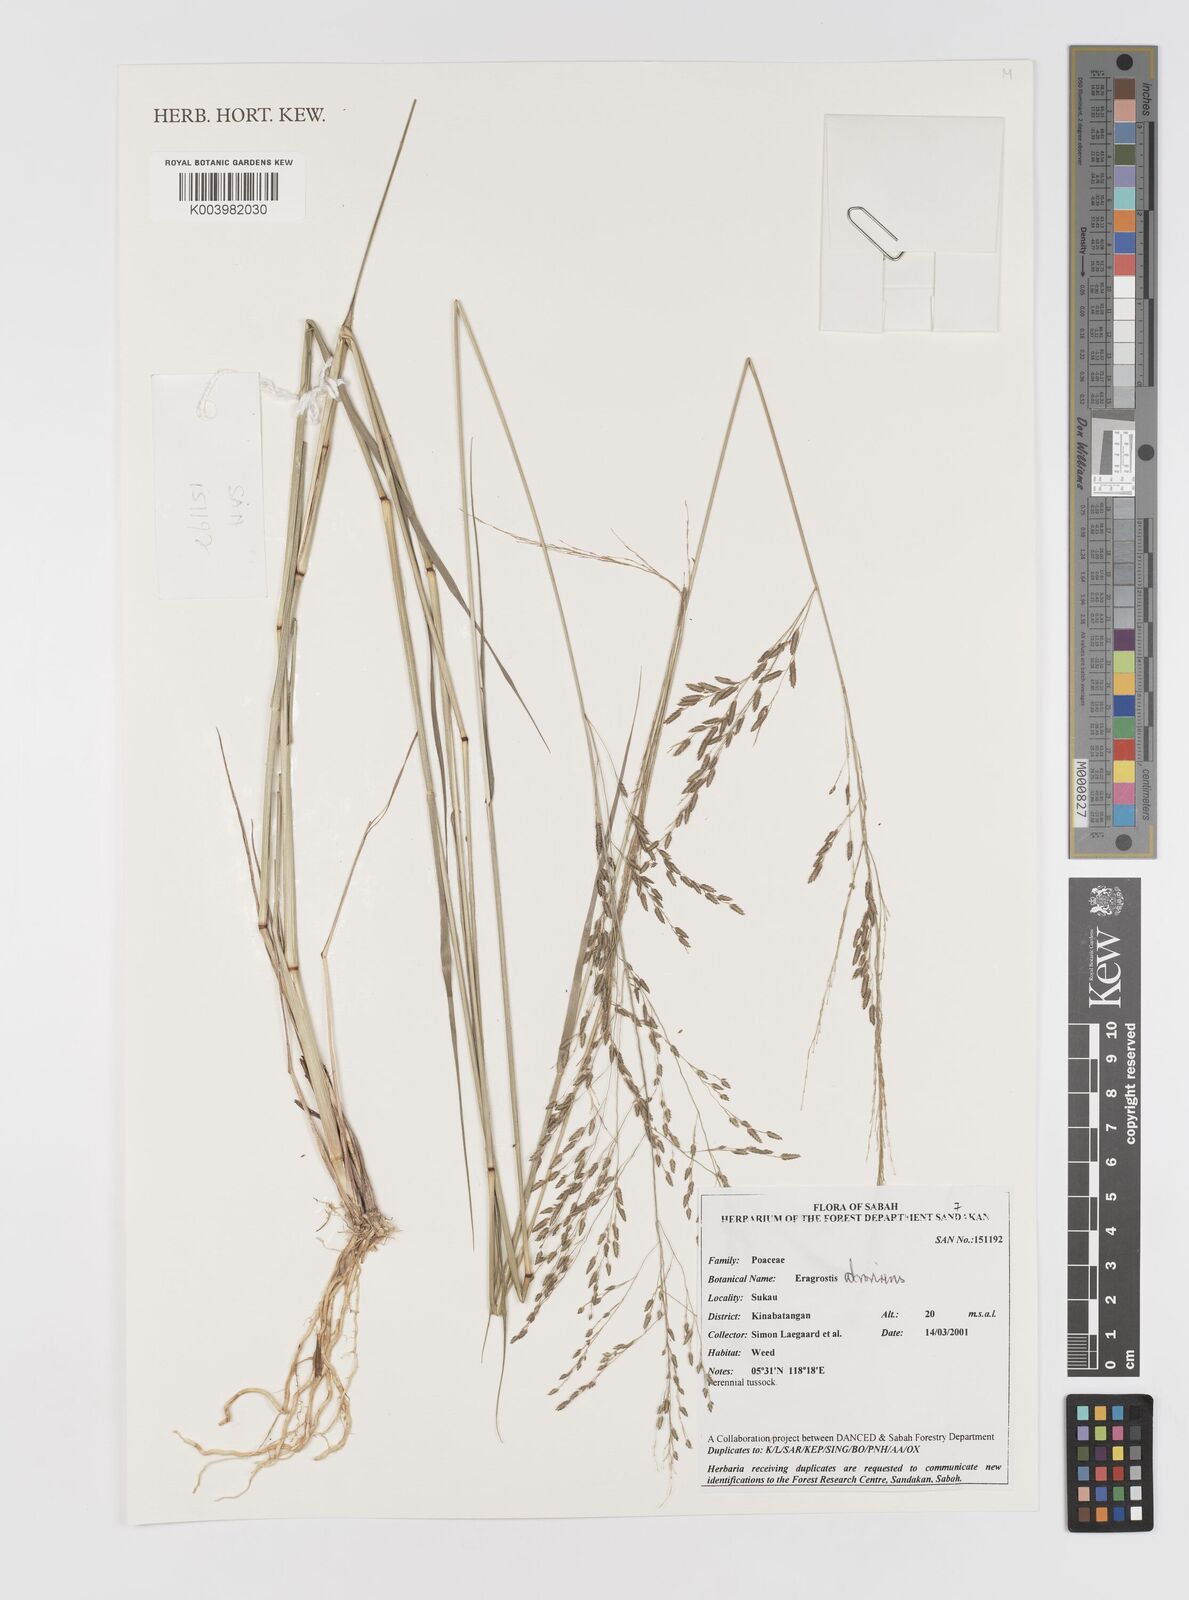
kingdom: Plantae
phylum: Tracheophyta
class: Liliopsida
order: Poales
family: Poaceae
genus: Eragrostis
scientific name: Eragrostis atrovirens
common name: Thalia lovegrass
